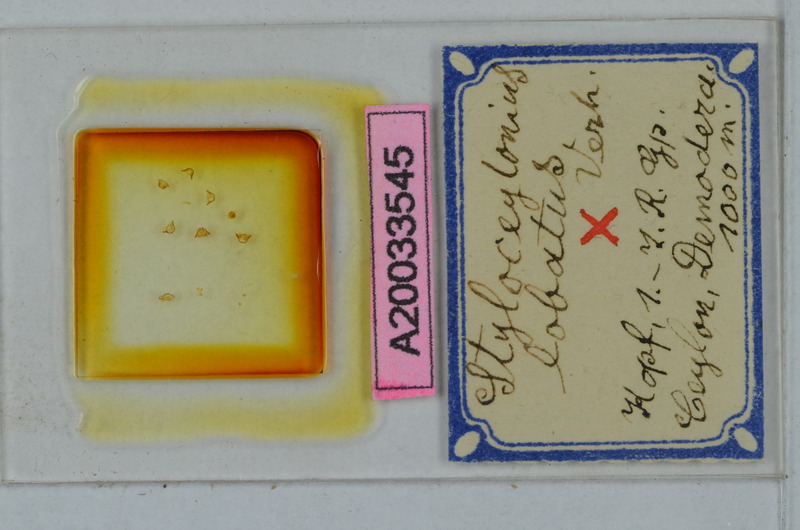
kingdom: Animalia
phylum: Arthropoda
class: Diplopoda
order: Polydesmida
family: Pyrgodesmidae
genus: Styloceylonius
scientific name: Styloceylonius lobatus
